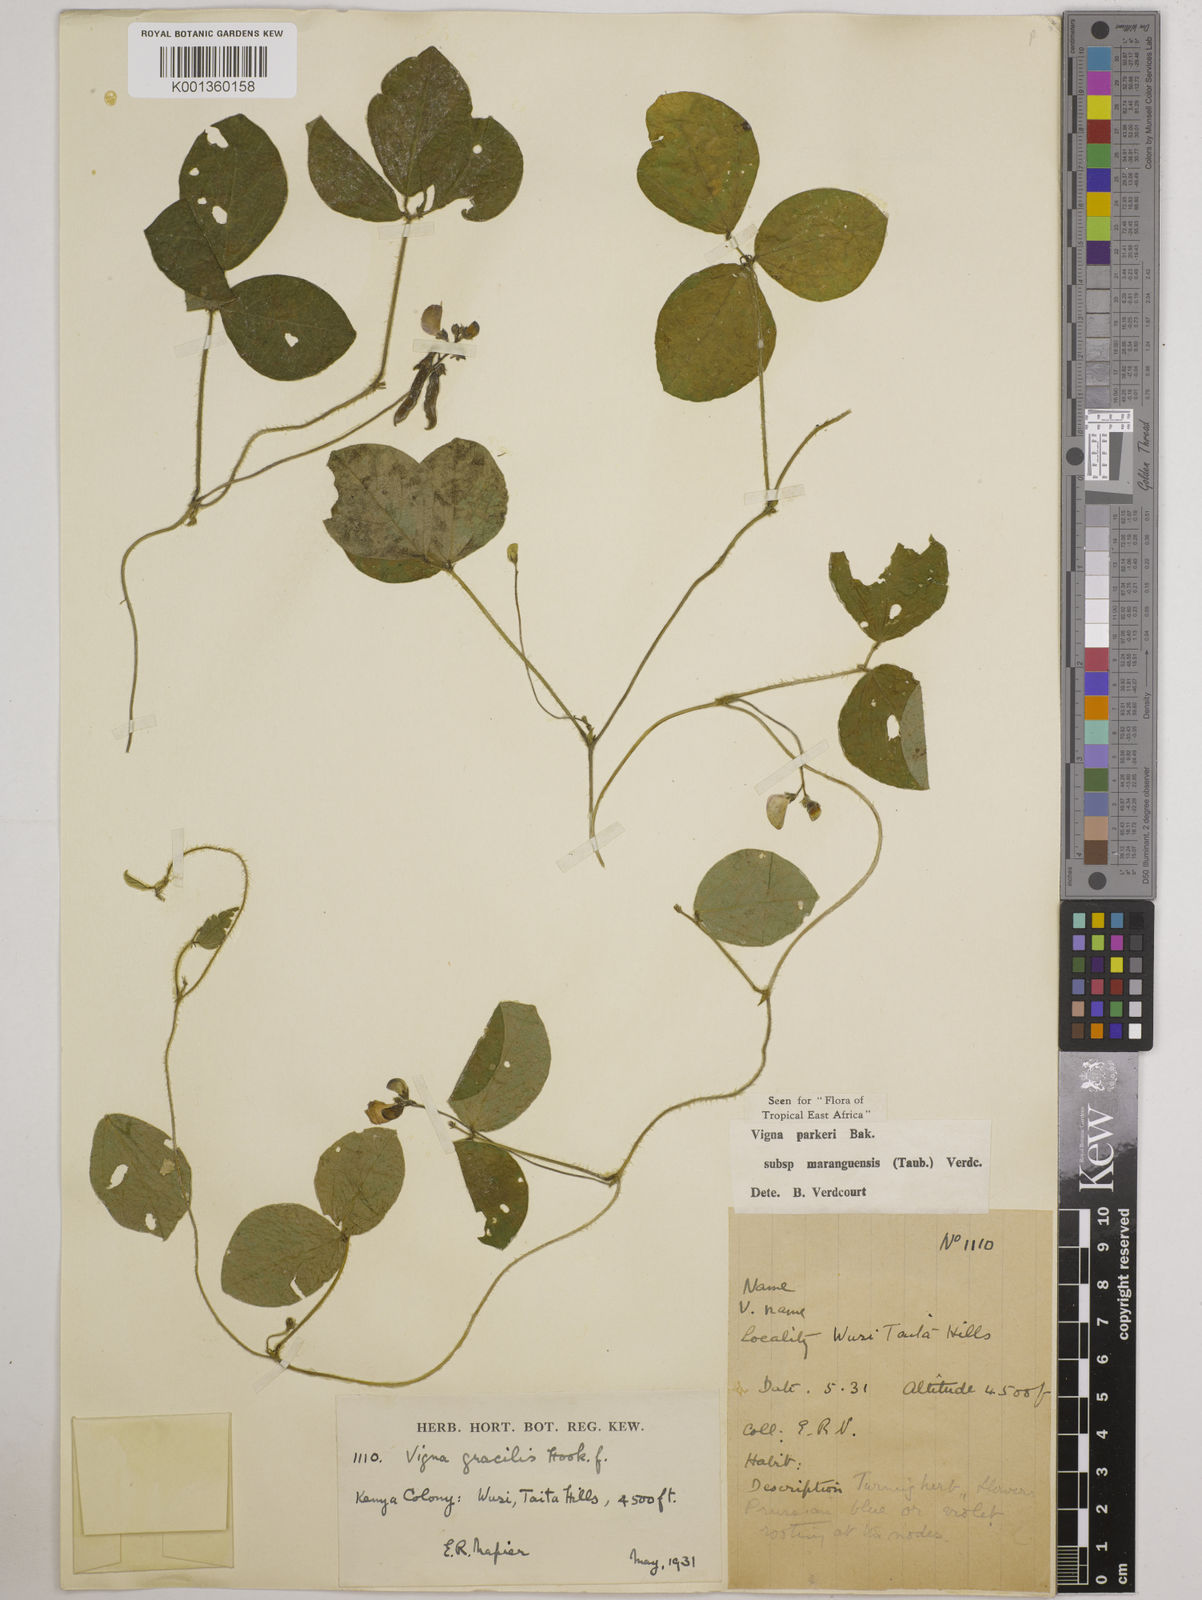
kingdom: Plantae
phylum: Tracheophyta
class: Magnoliopsida
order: Fabales
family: Fabaceae
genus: Vigna
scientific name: Vigna
